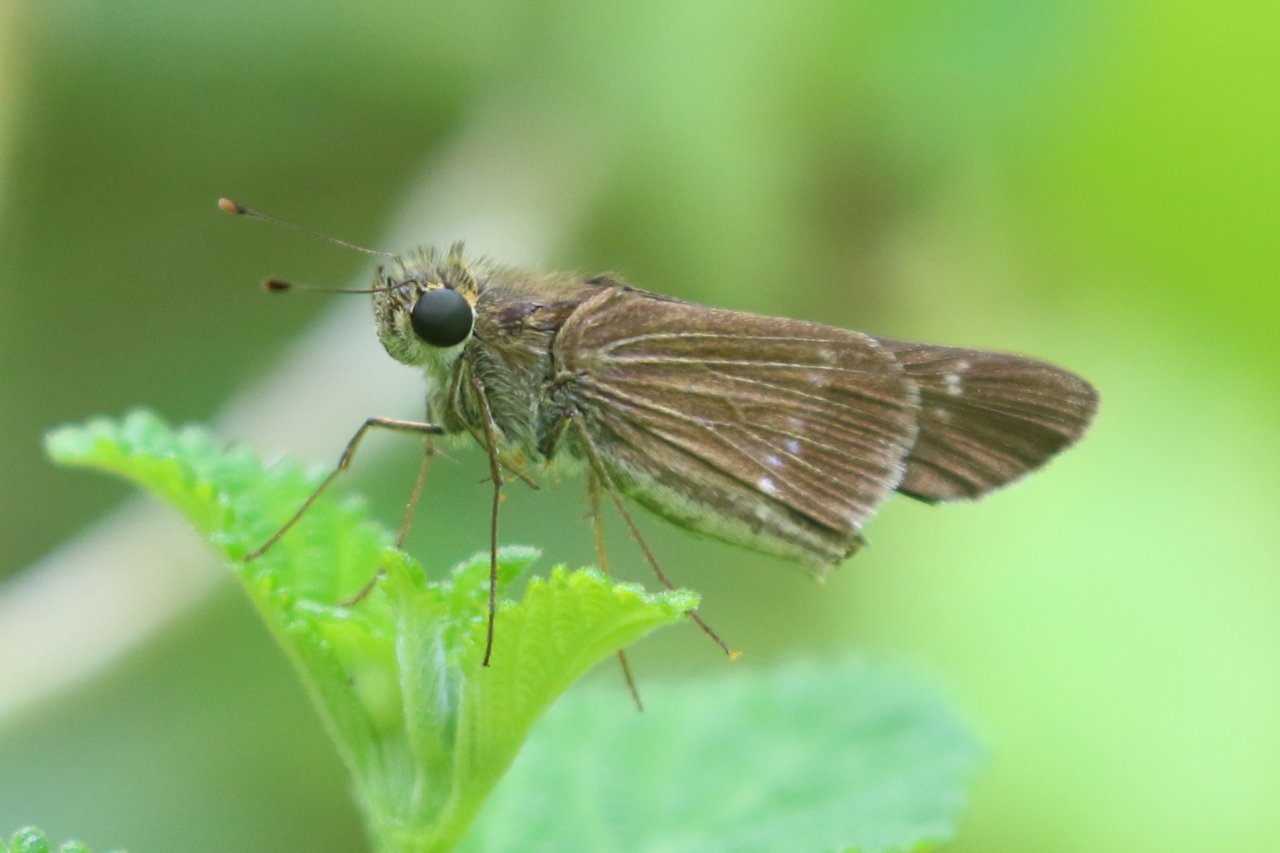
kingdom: Animalia
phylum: Arthropoda
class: Insecta
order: Lepidoptera
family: Hesperiidae
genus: Turesis
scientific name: Turesis lucas
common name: Purple-washed Skipper
